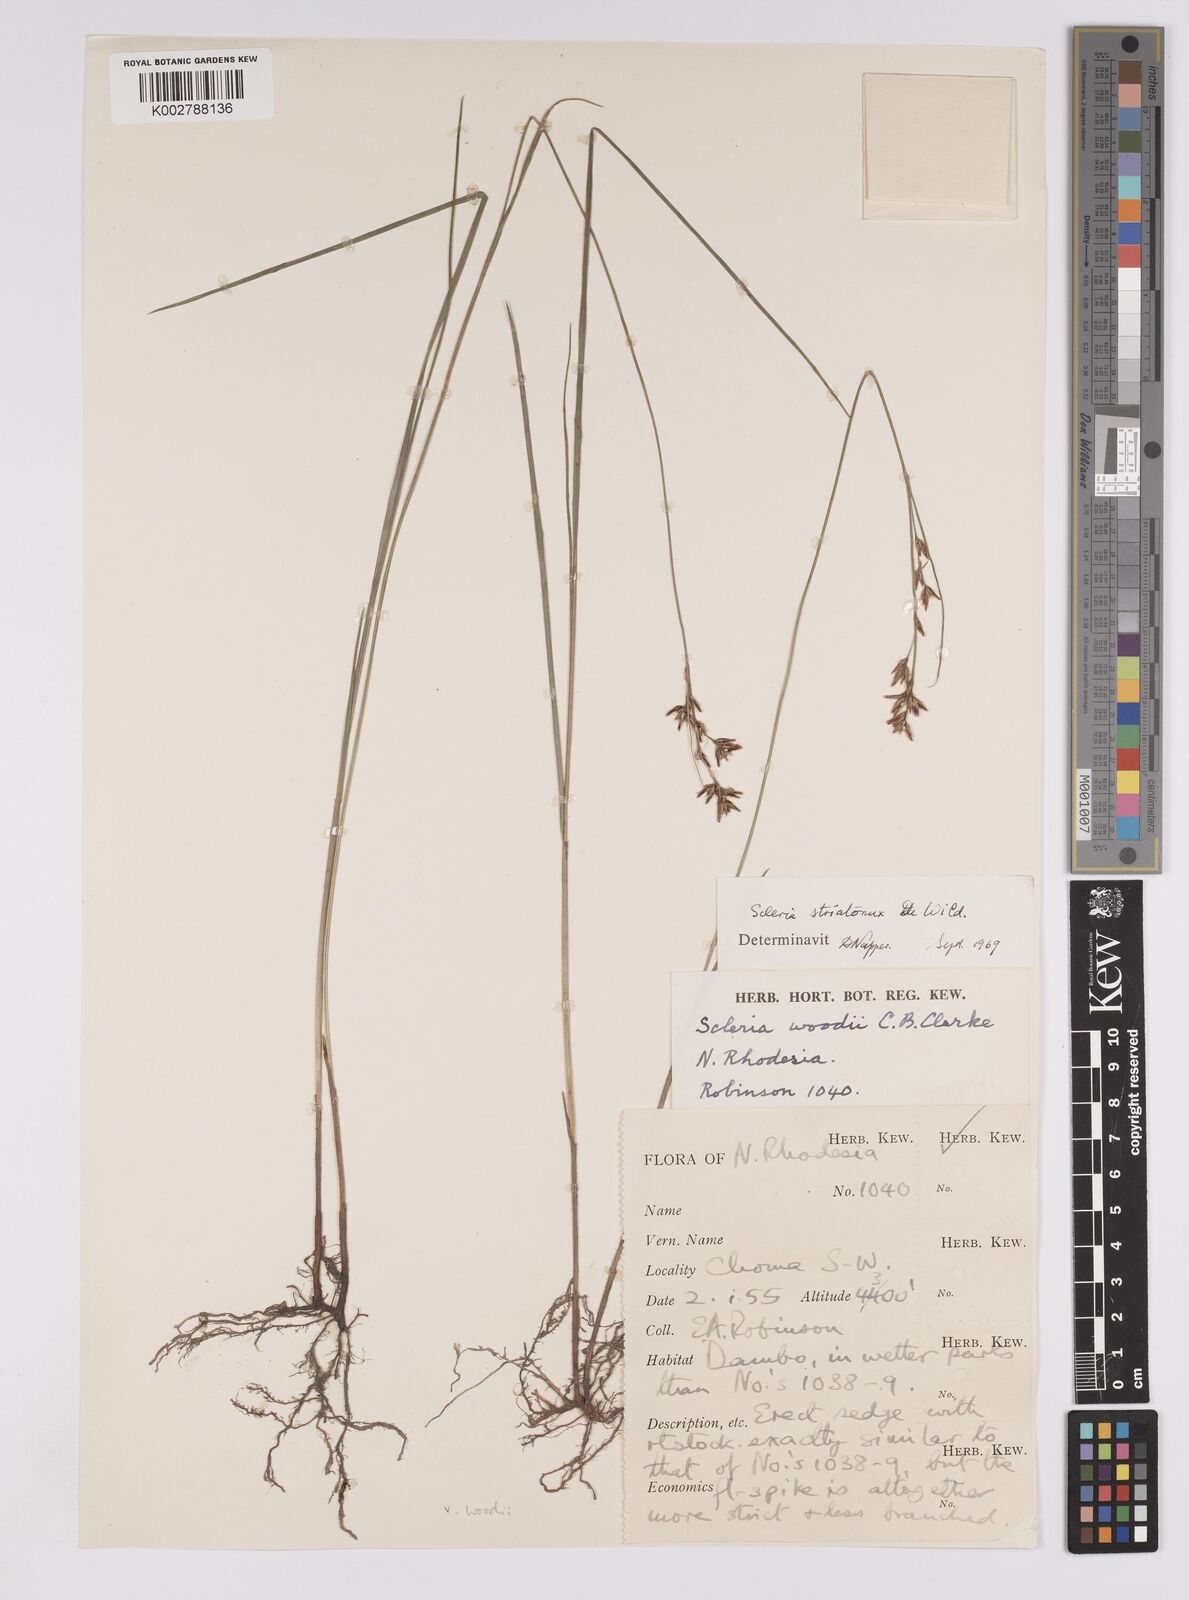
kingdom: Plantae
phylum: Tracheophyta
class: Liliopsida
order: Poales
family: Cyperaceae
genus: Scleria
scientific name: Scleria woodii
